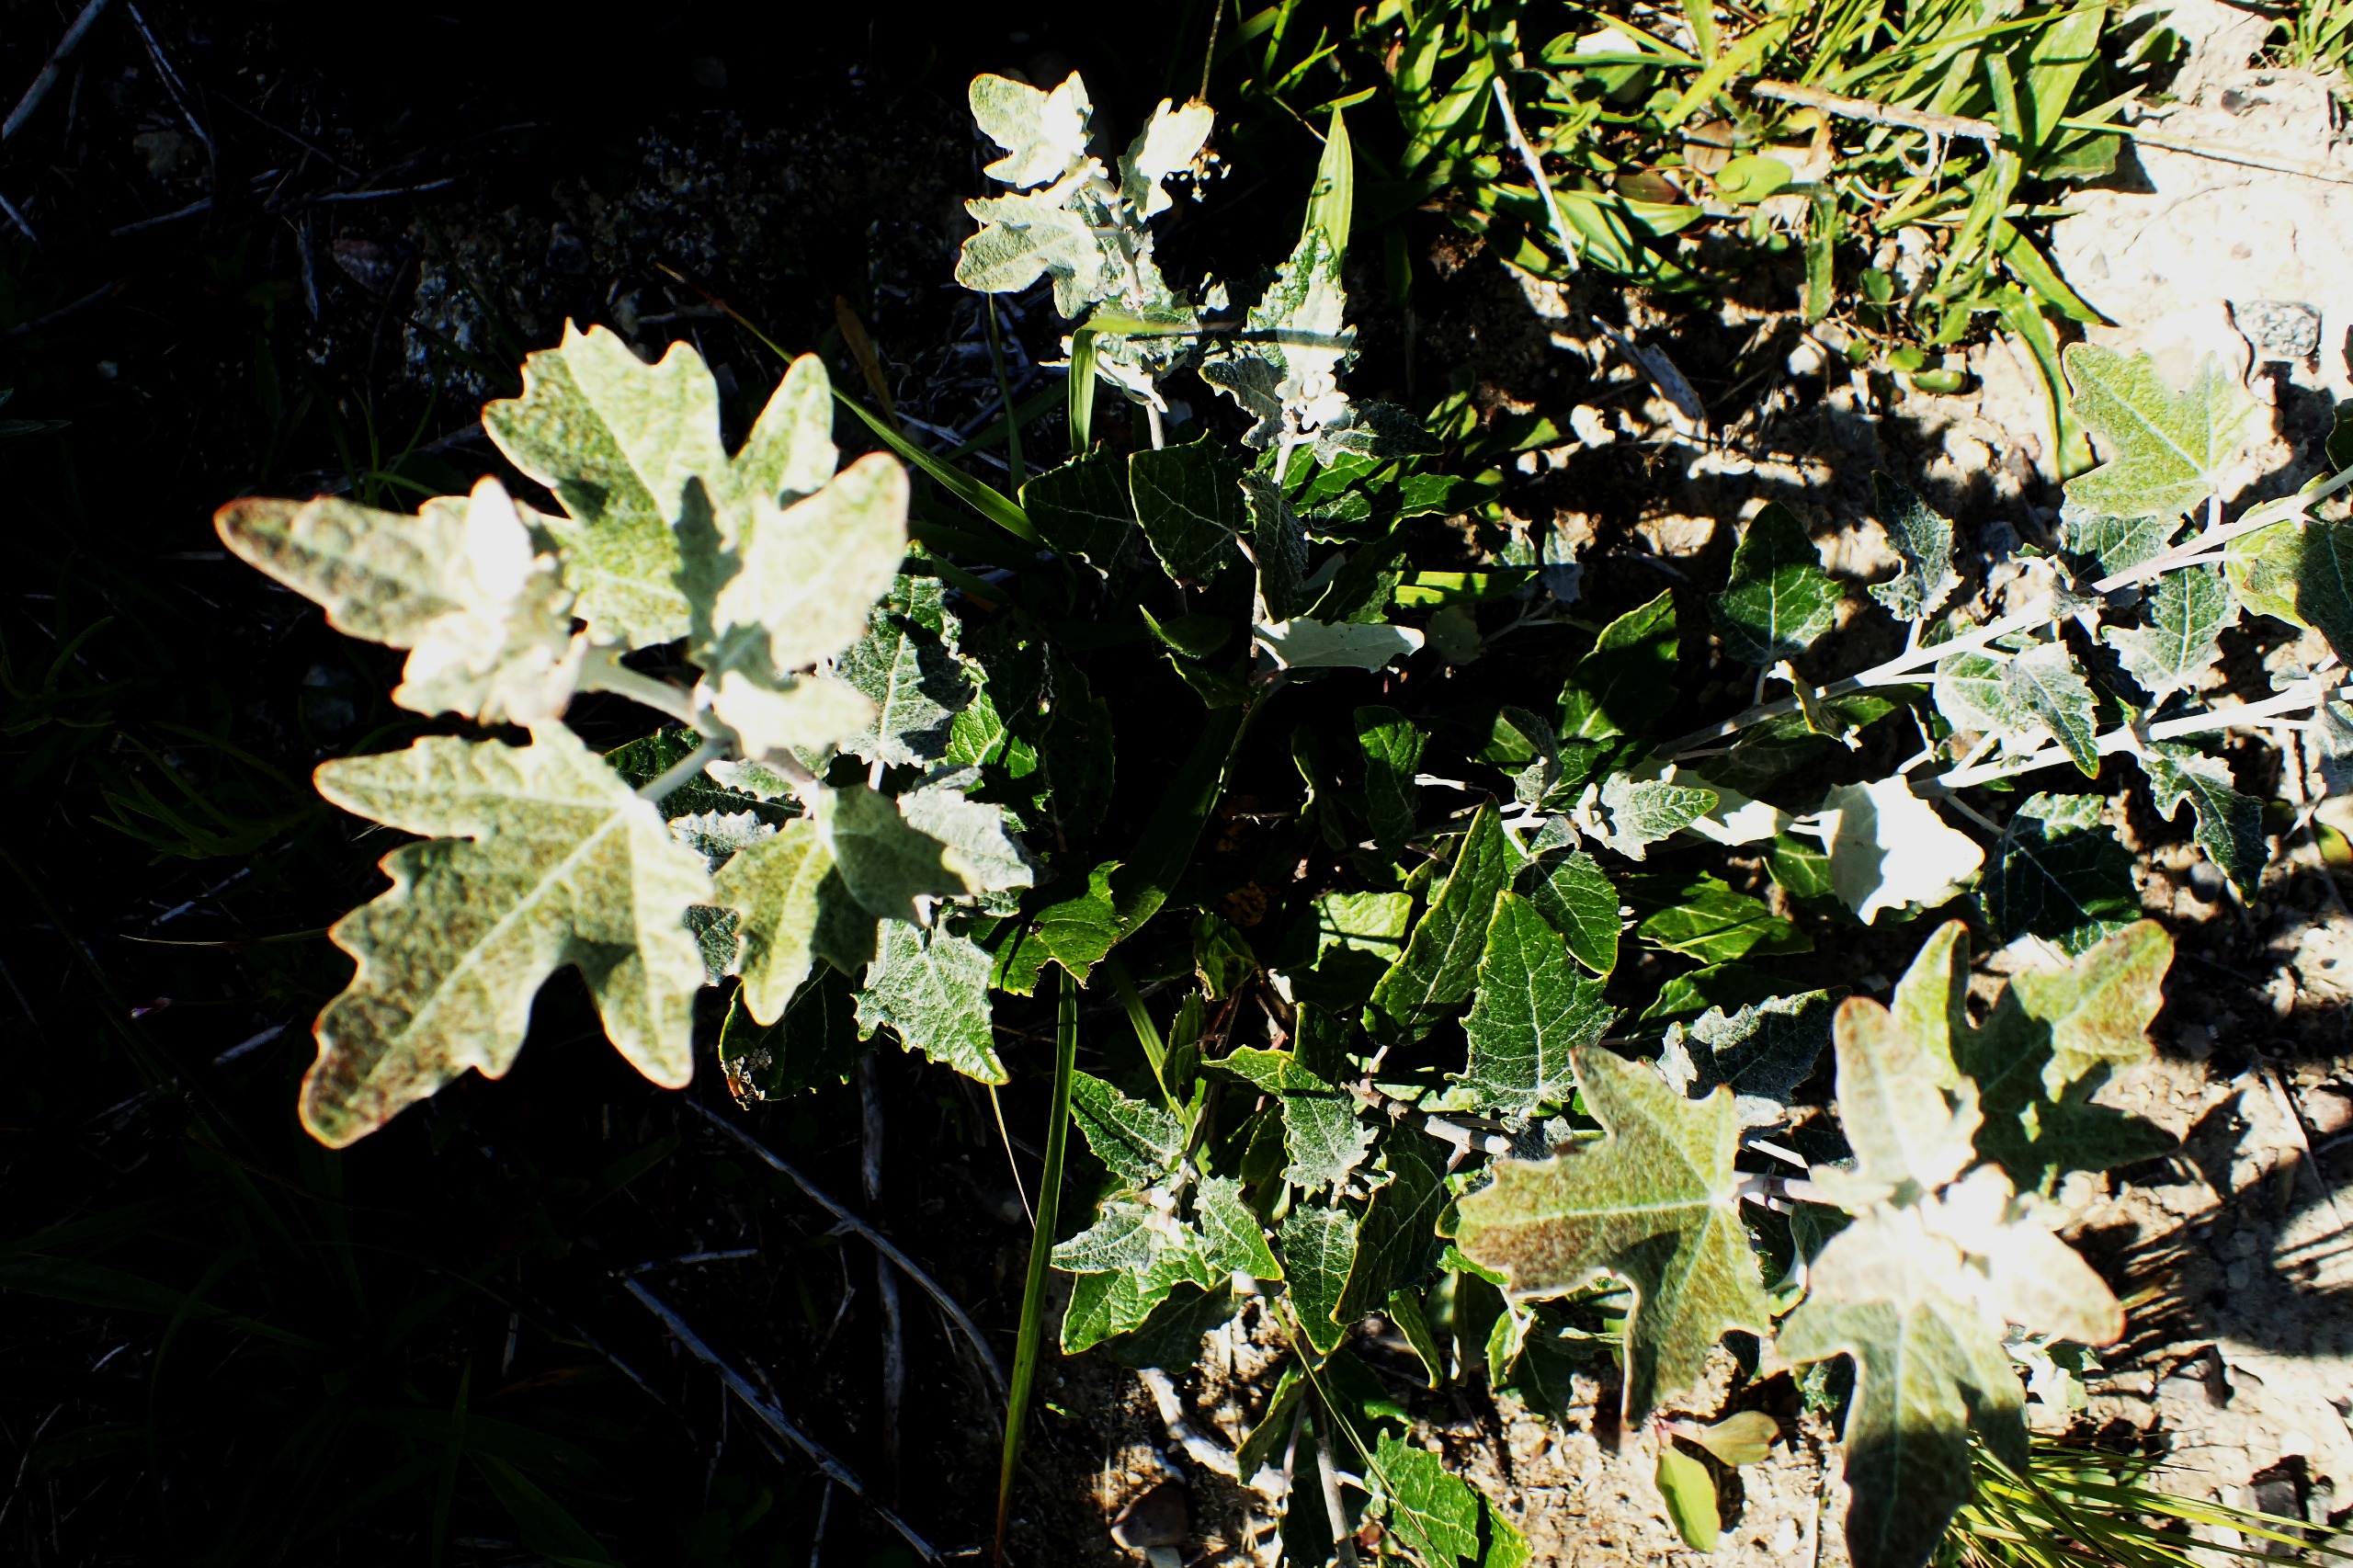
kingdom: Plantae
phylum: Tracheophyta
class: Magnoliopsida
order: Malpighiales
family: Salicaceae
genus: Populus
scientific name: Populus alba
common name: Sølv-poppel
